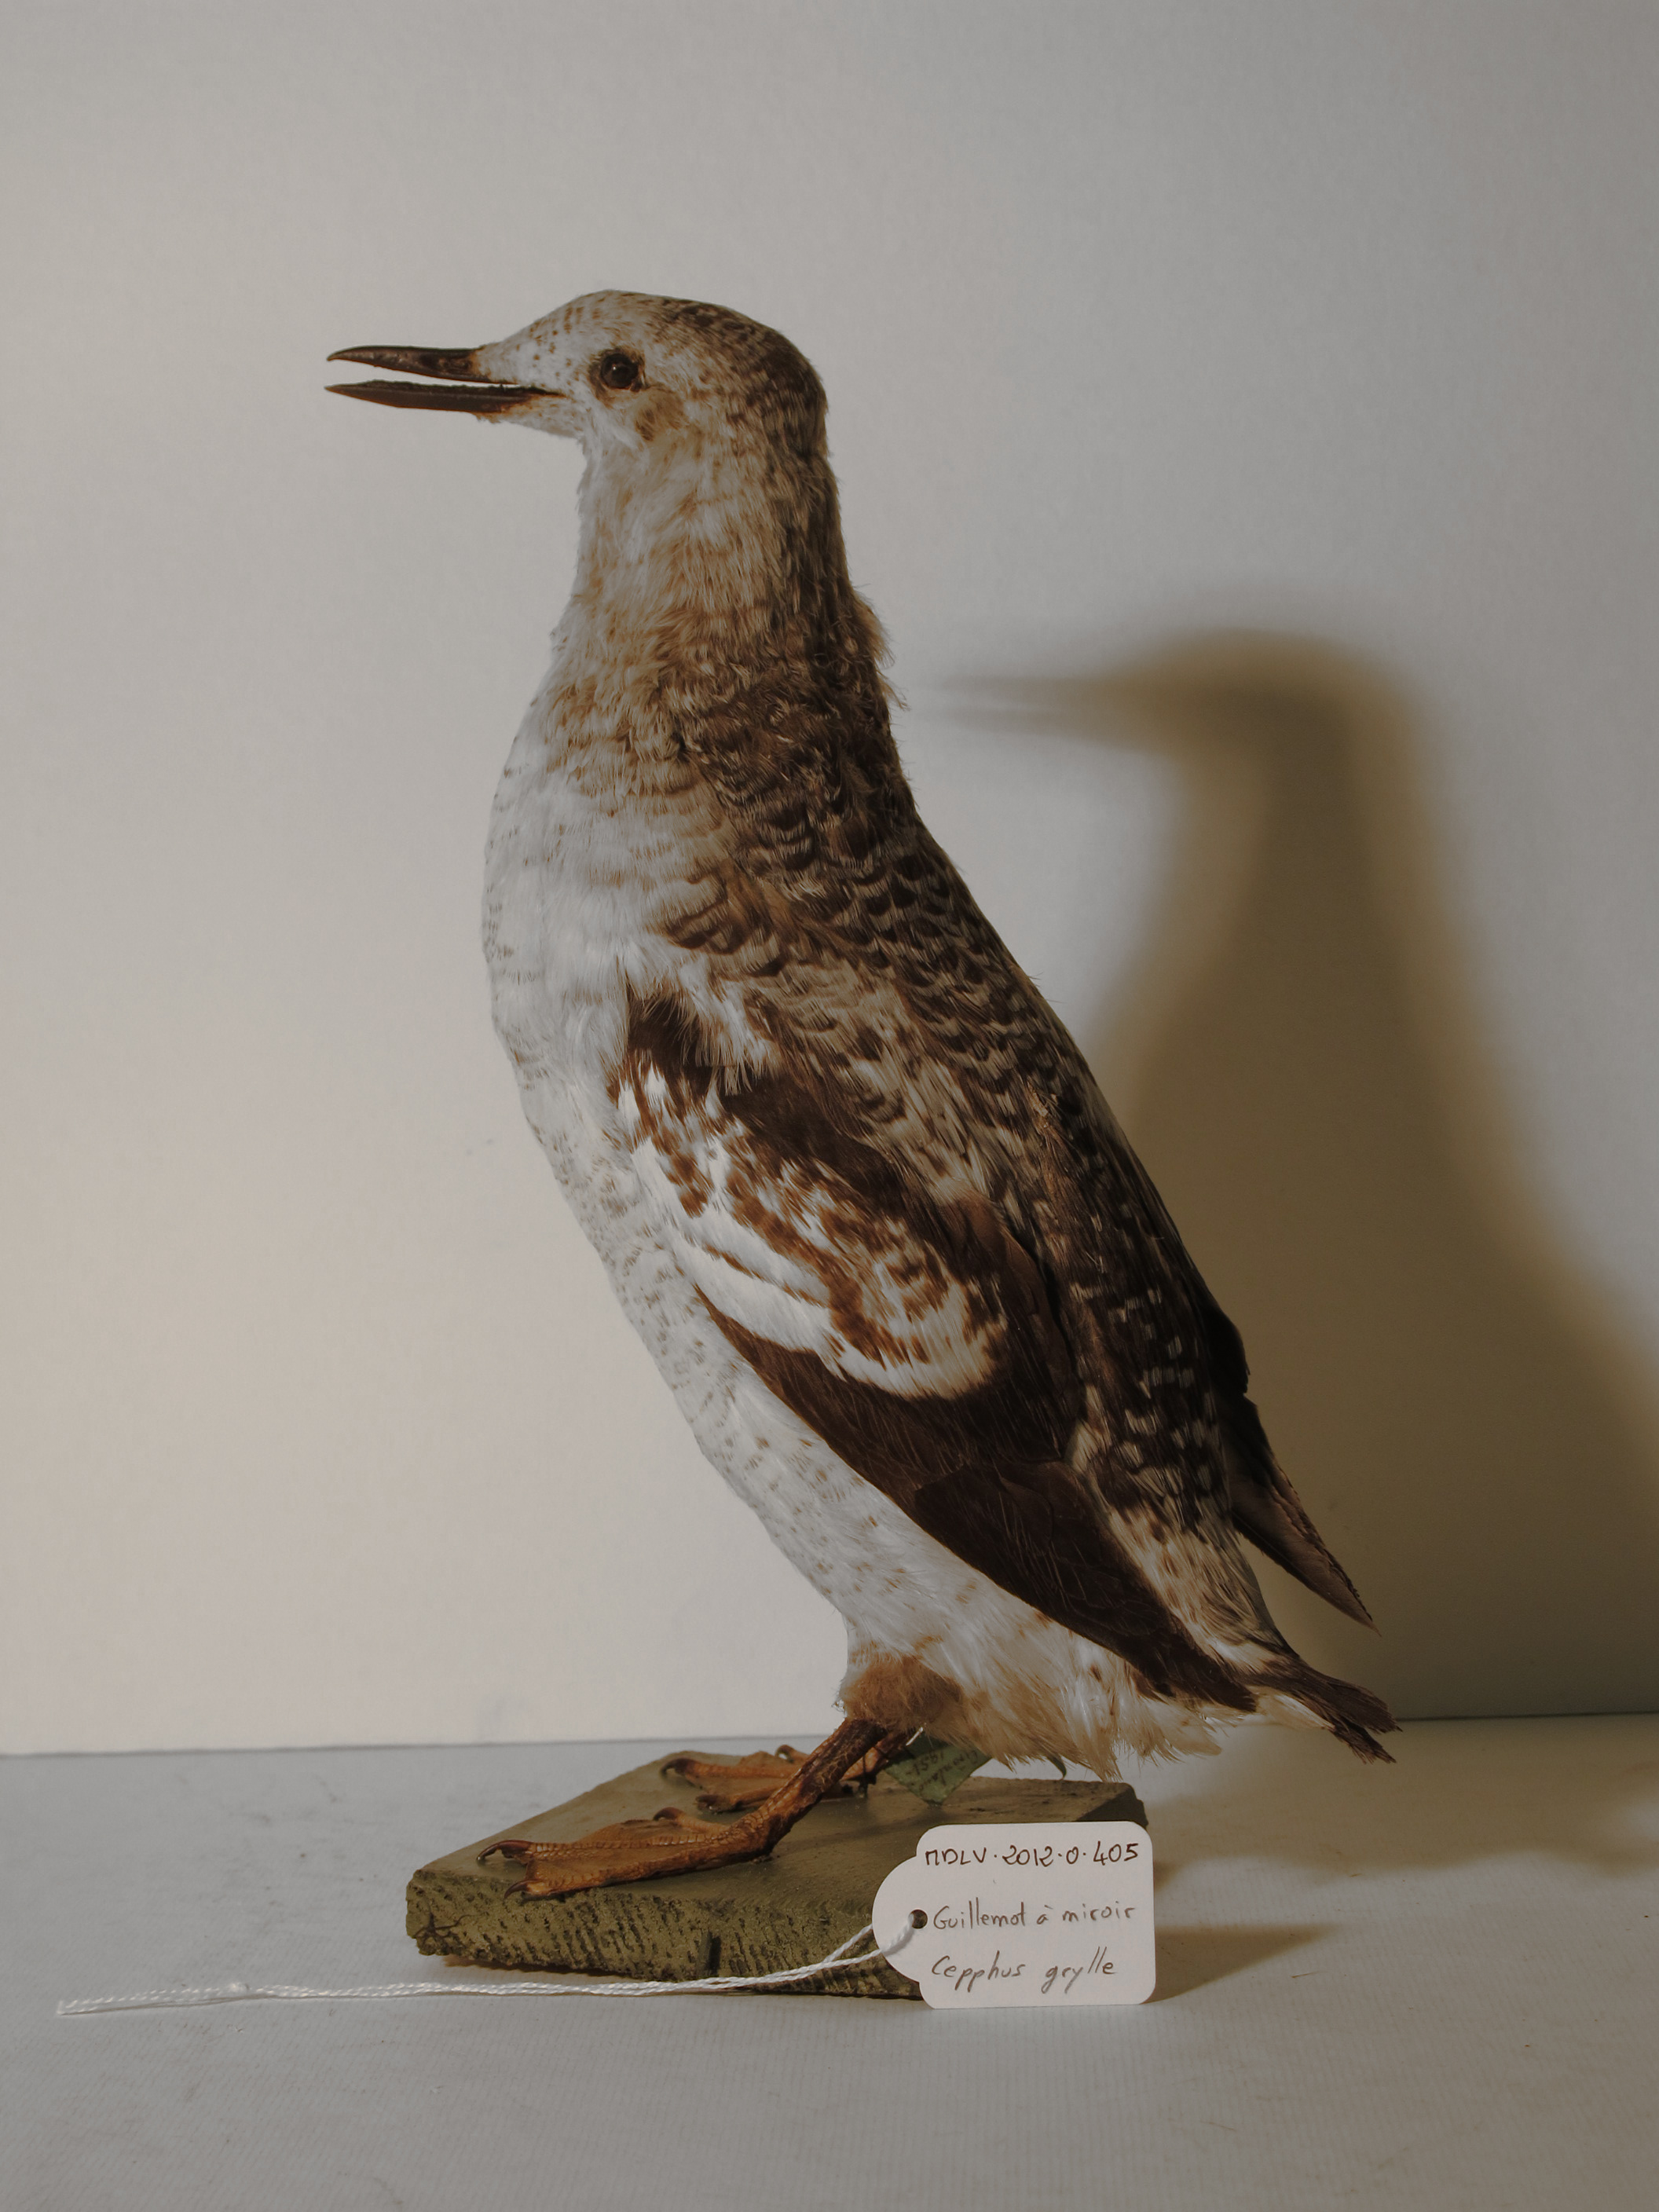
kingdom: Animalia
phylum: Chordata
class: Aves
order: Charadriiformes
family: Alcidae
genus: Cepphus
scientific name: Cepphus grylle
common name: Black Guillemot
